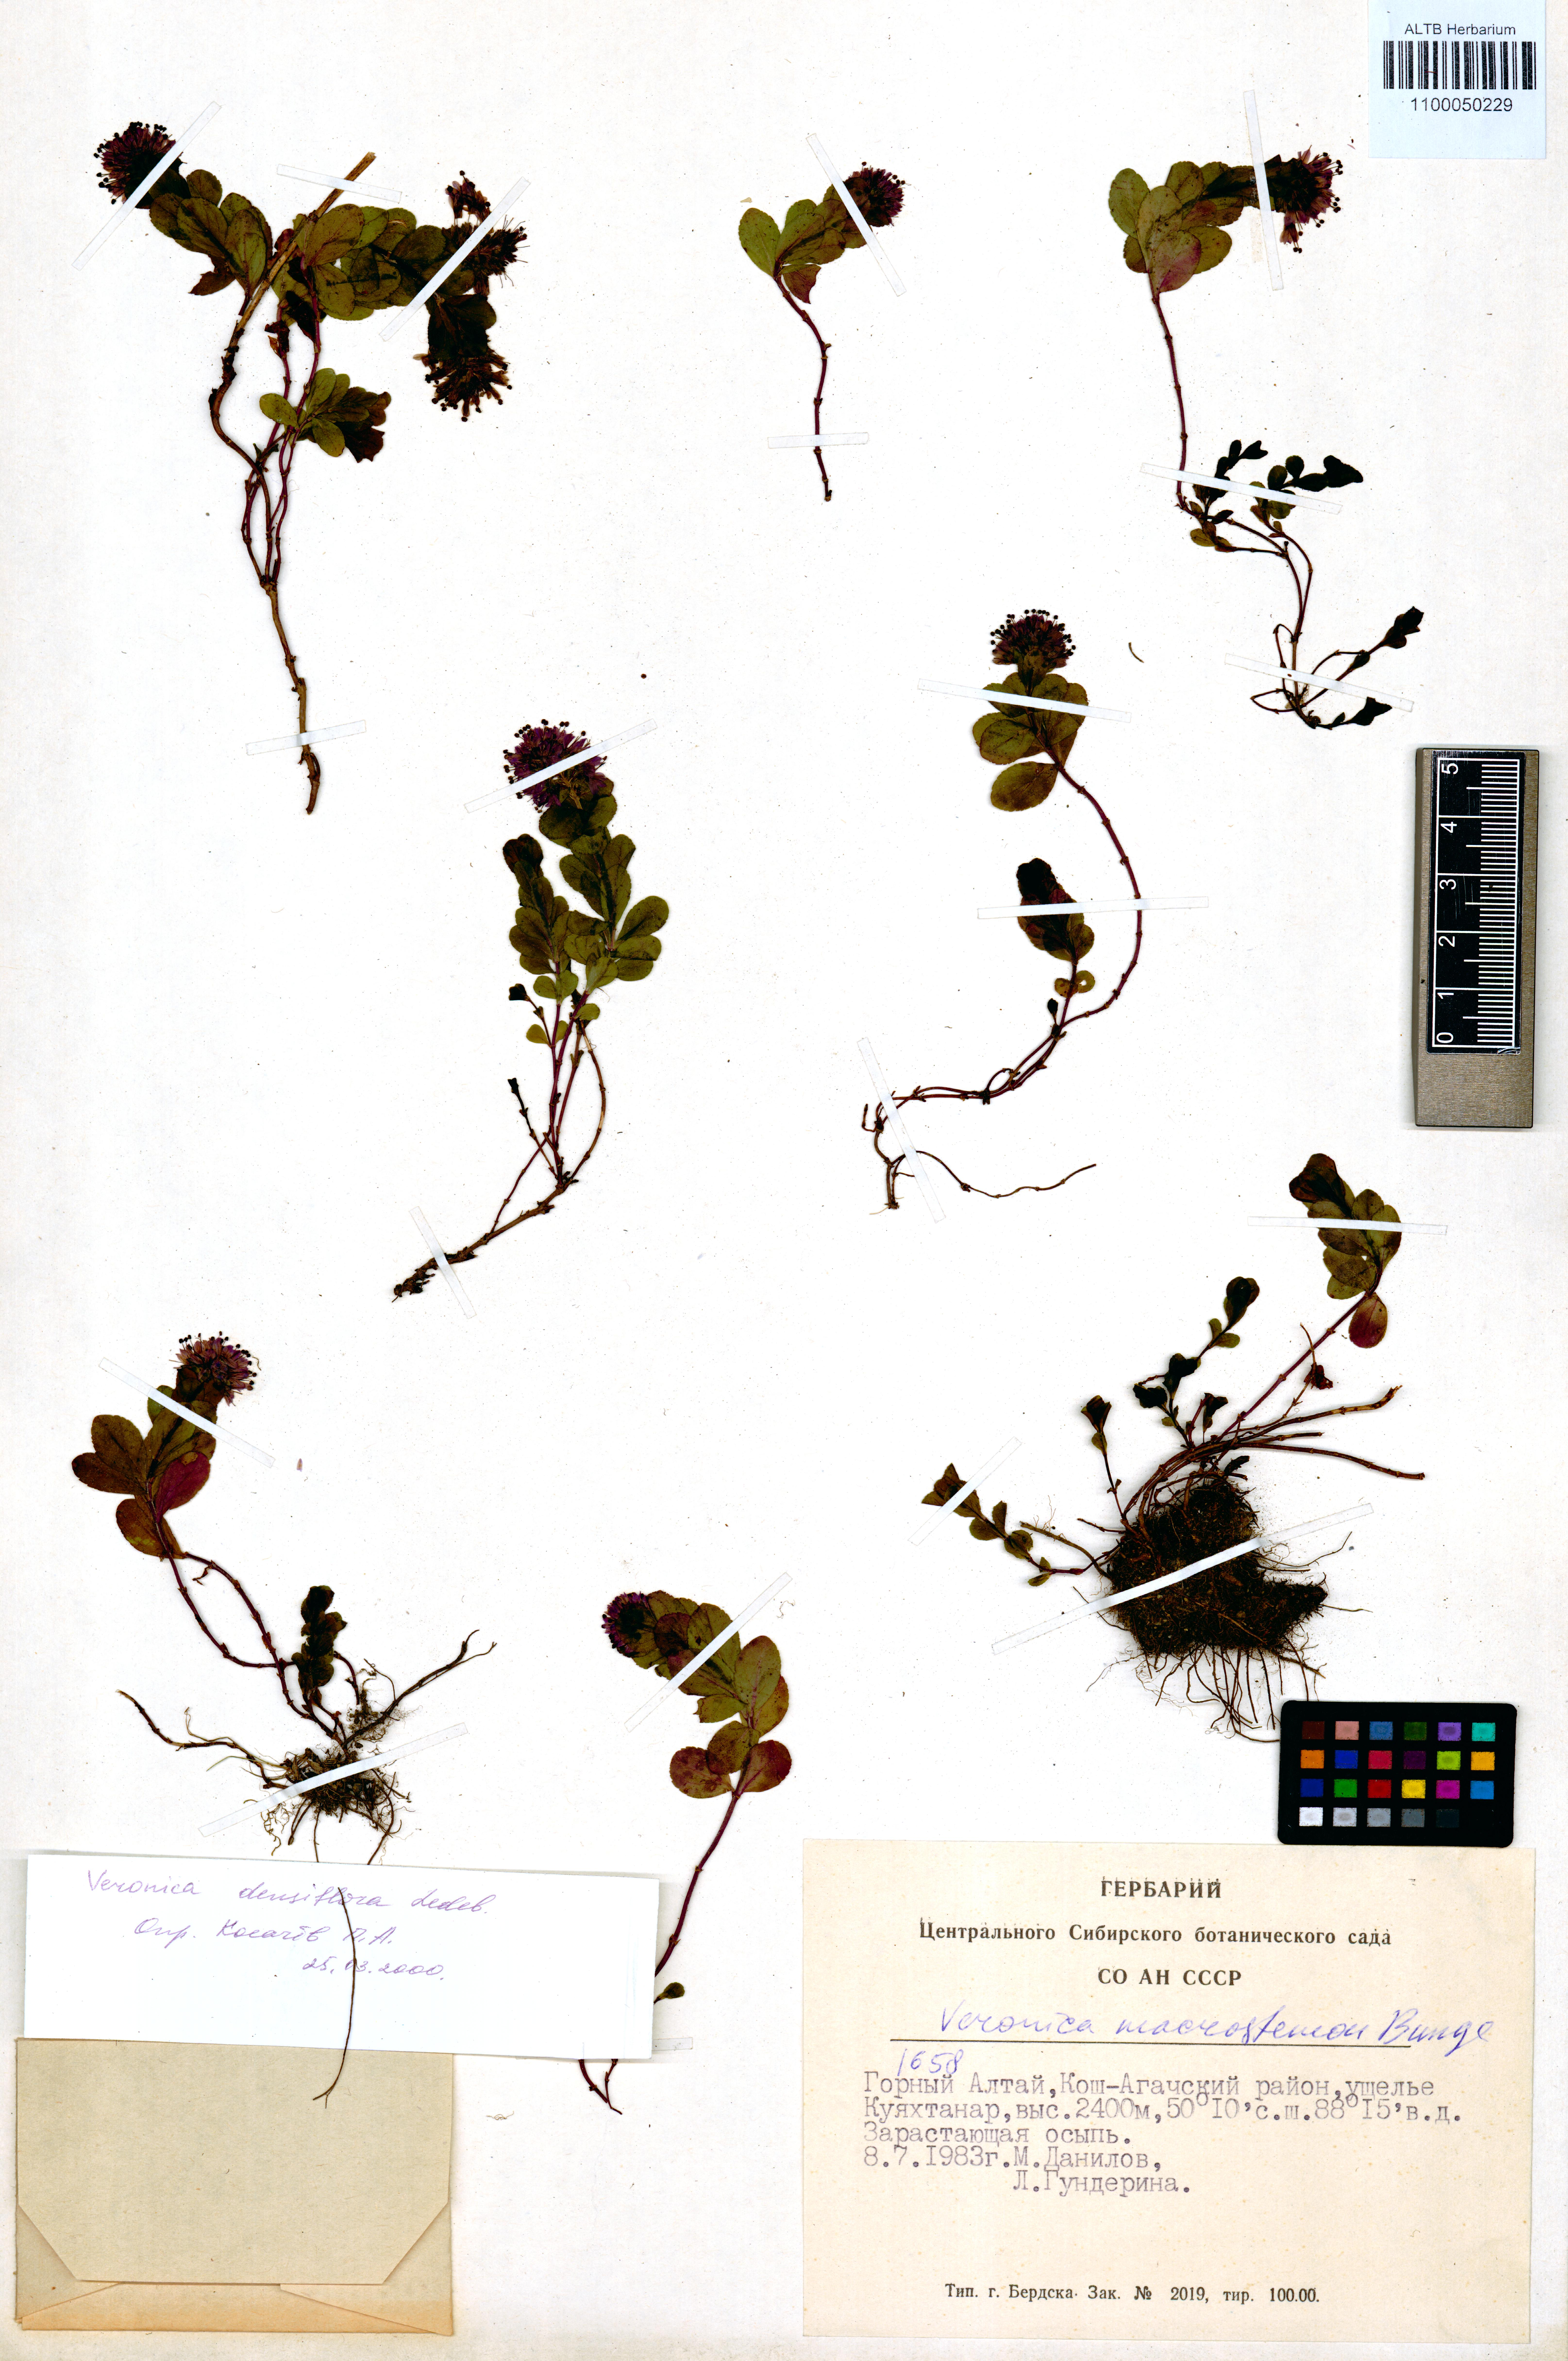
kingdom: Plantae
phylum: Tracheophyta
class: Magnoliopsida
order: Lamiales
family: Plantaginaceae
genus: Veronica
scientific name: Veronica densiflora
